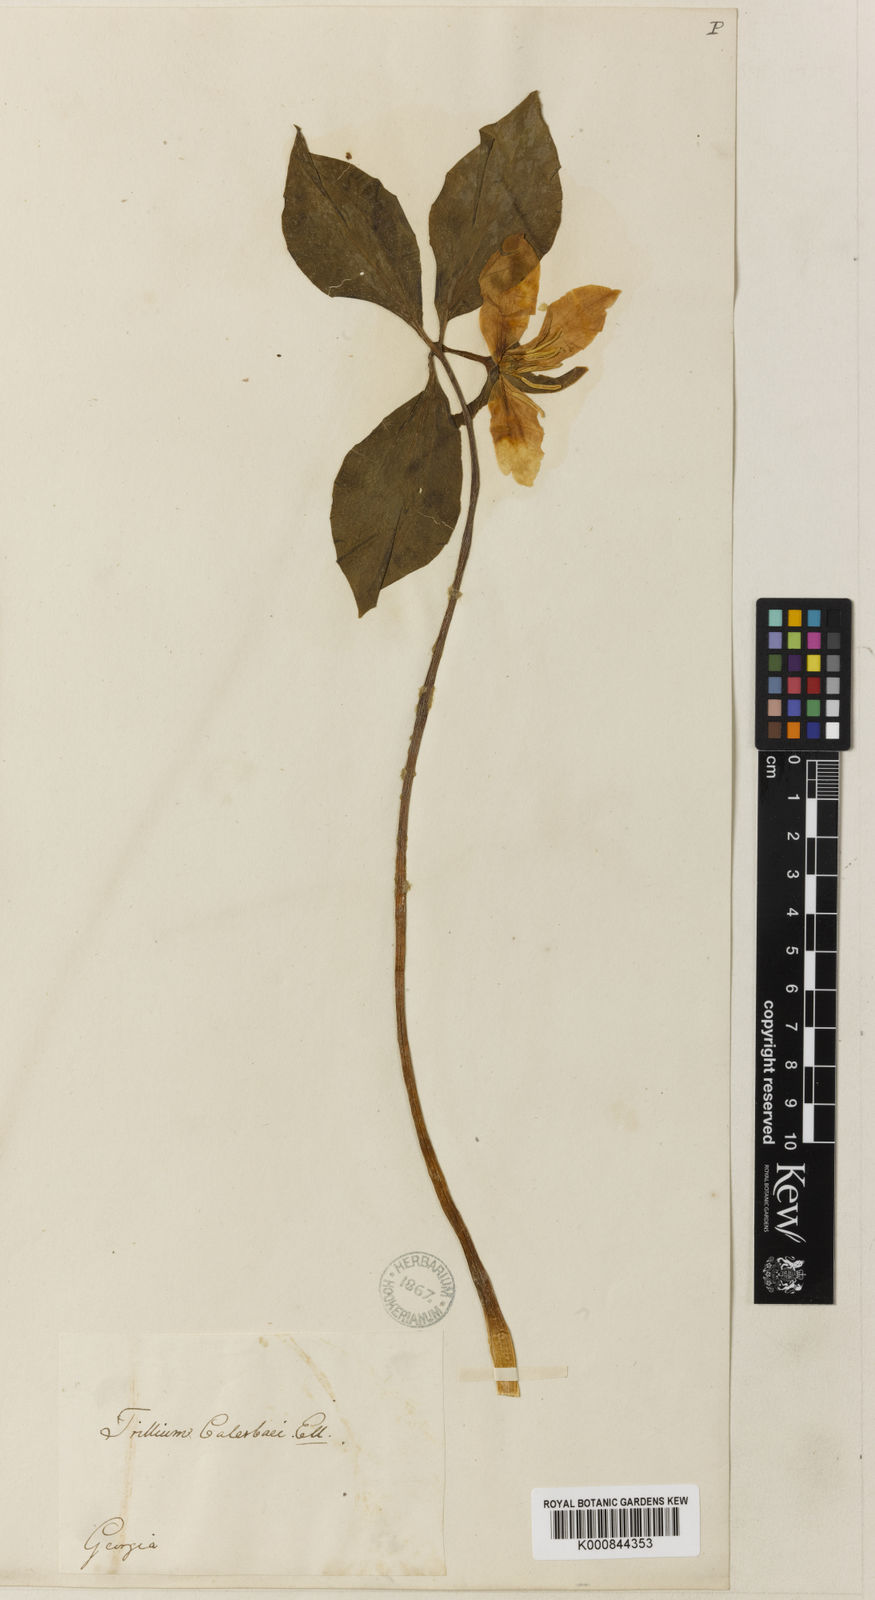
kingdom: Plantae
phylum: Tracheophyta
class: Liliopsida
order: Liliales
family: Melanthiaceae
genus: Trillium
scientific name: Trillium catesbaei
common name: Bashful trillium
